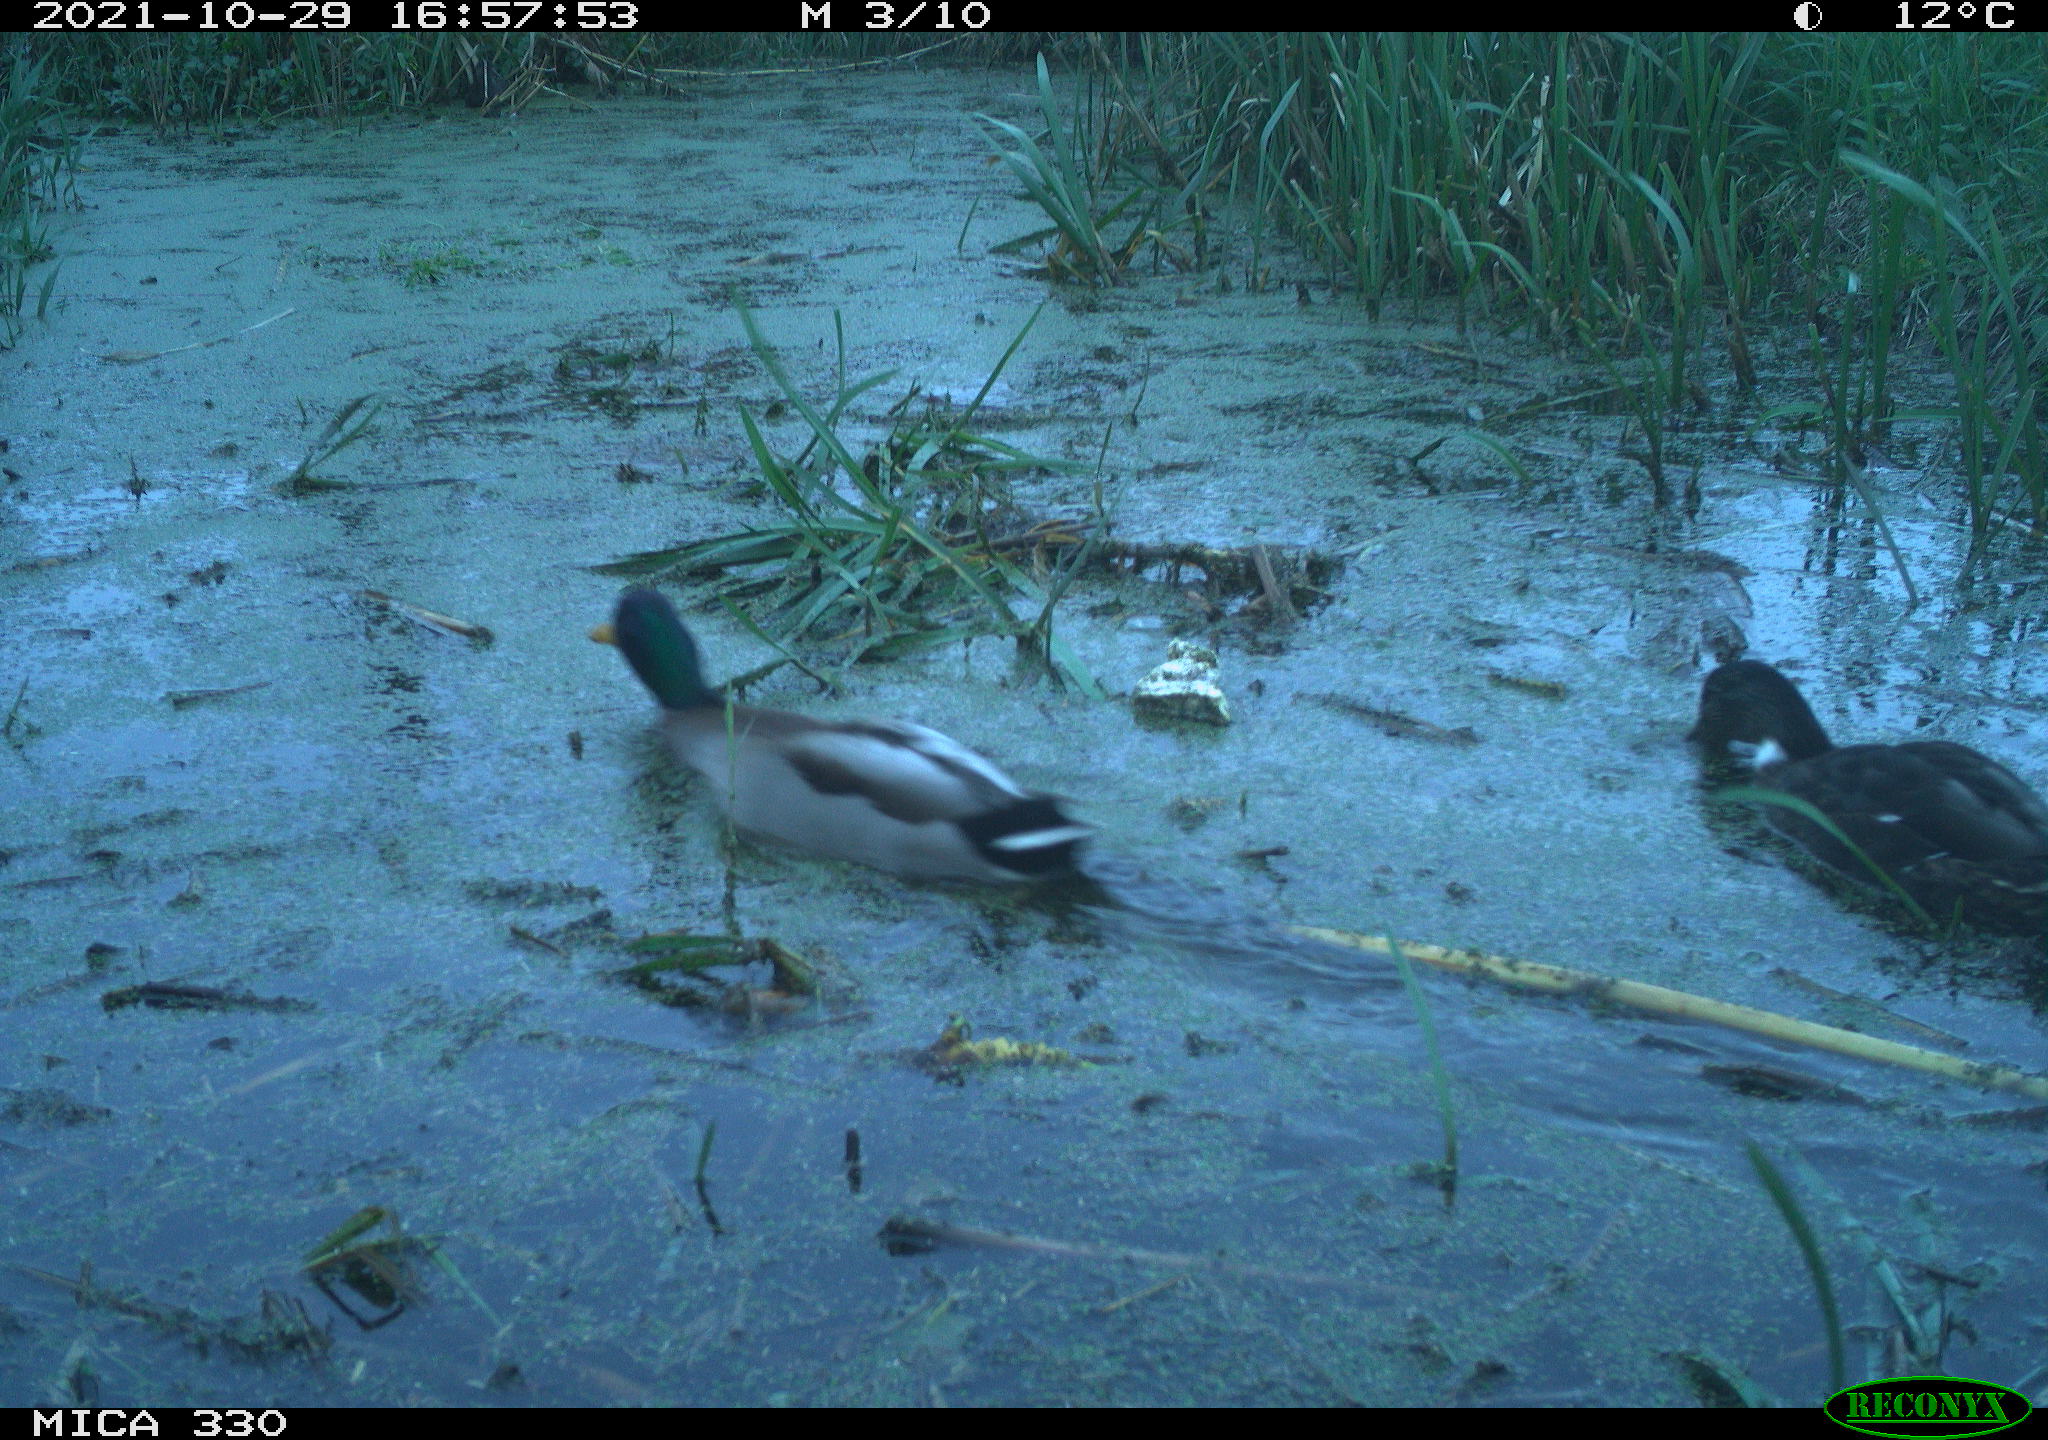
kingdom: Animalia
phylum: Chordata
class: Aves
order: Anseriformes
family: Anatidae
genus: Anas
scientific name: Anas platyrhynchos
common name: Mallard
